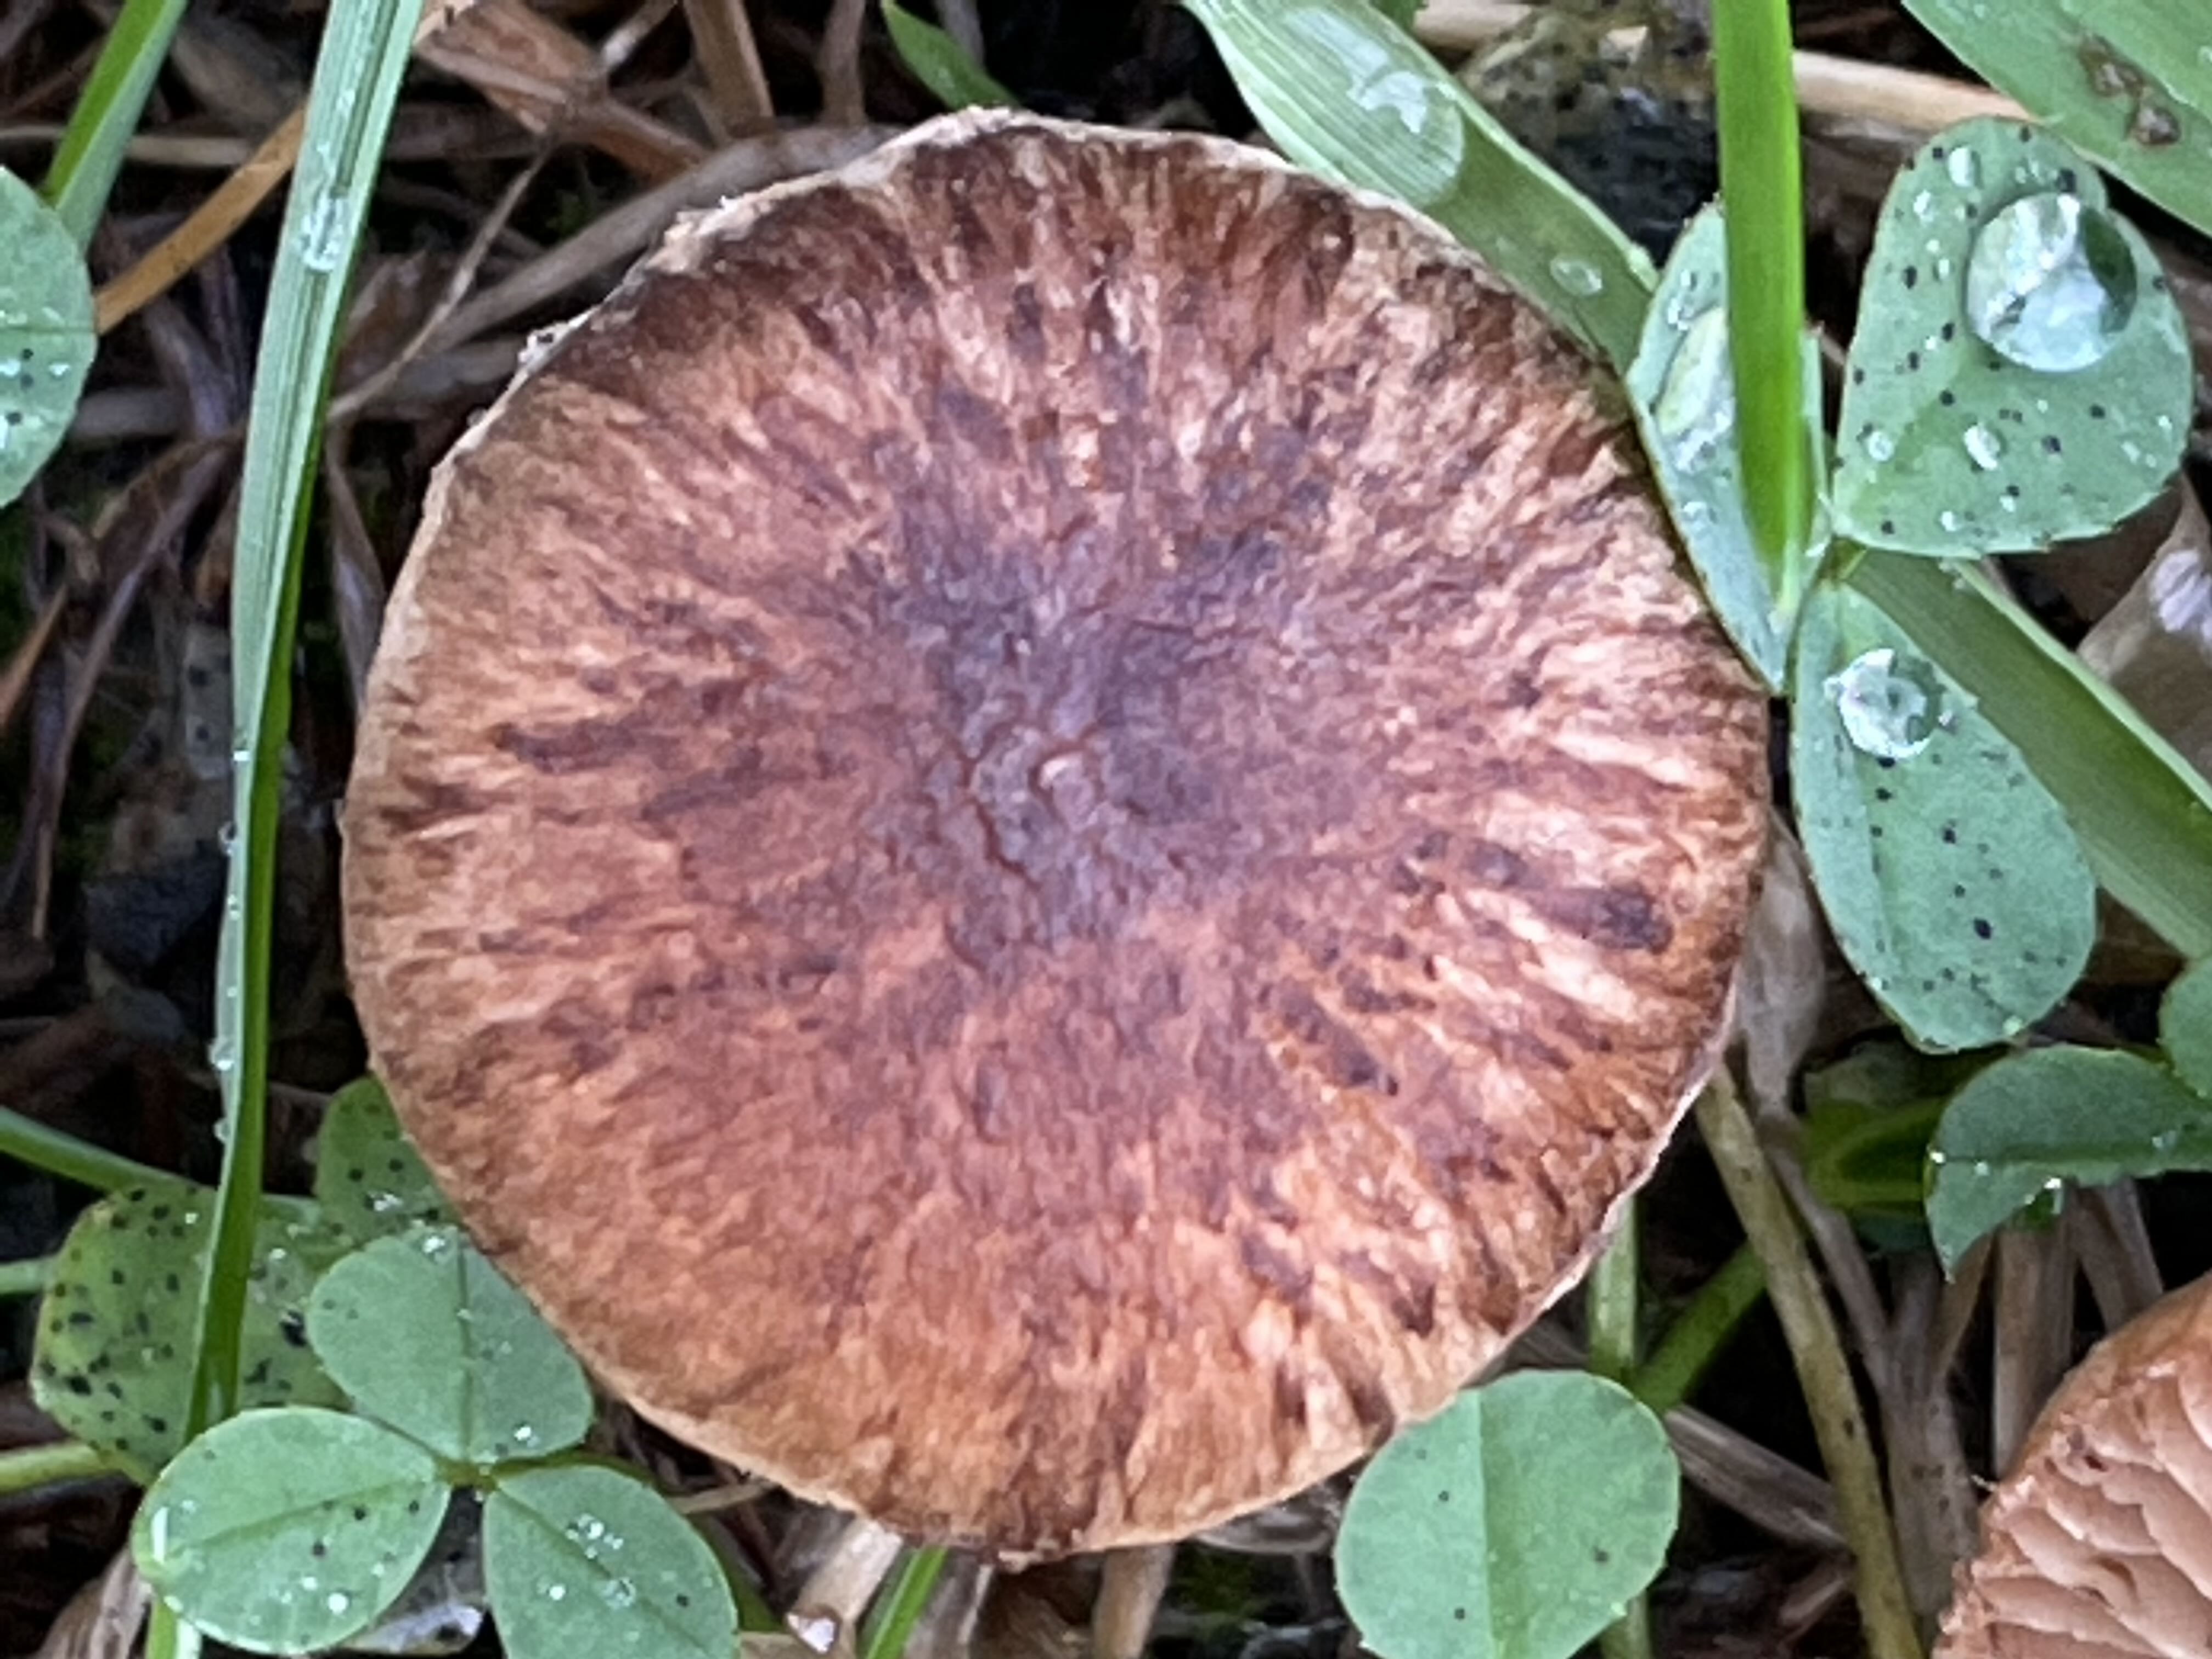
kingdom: Fungi
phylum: Basidiomycota
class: Agaricomycetes
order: Agaricales
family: Inocybaceae
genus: Inocybe
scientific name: Inocybe helobia
